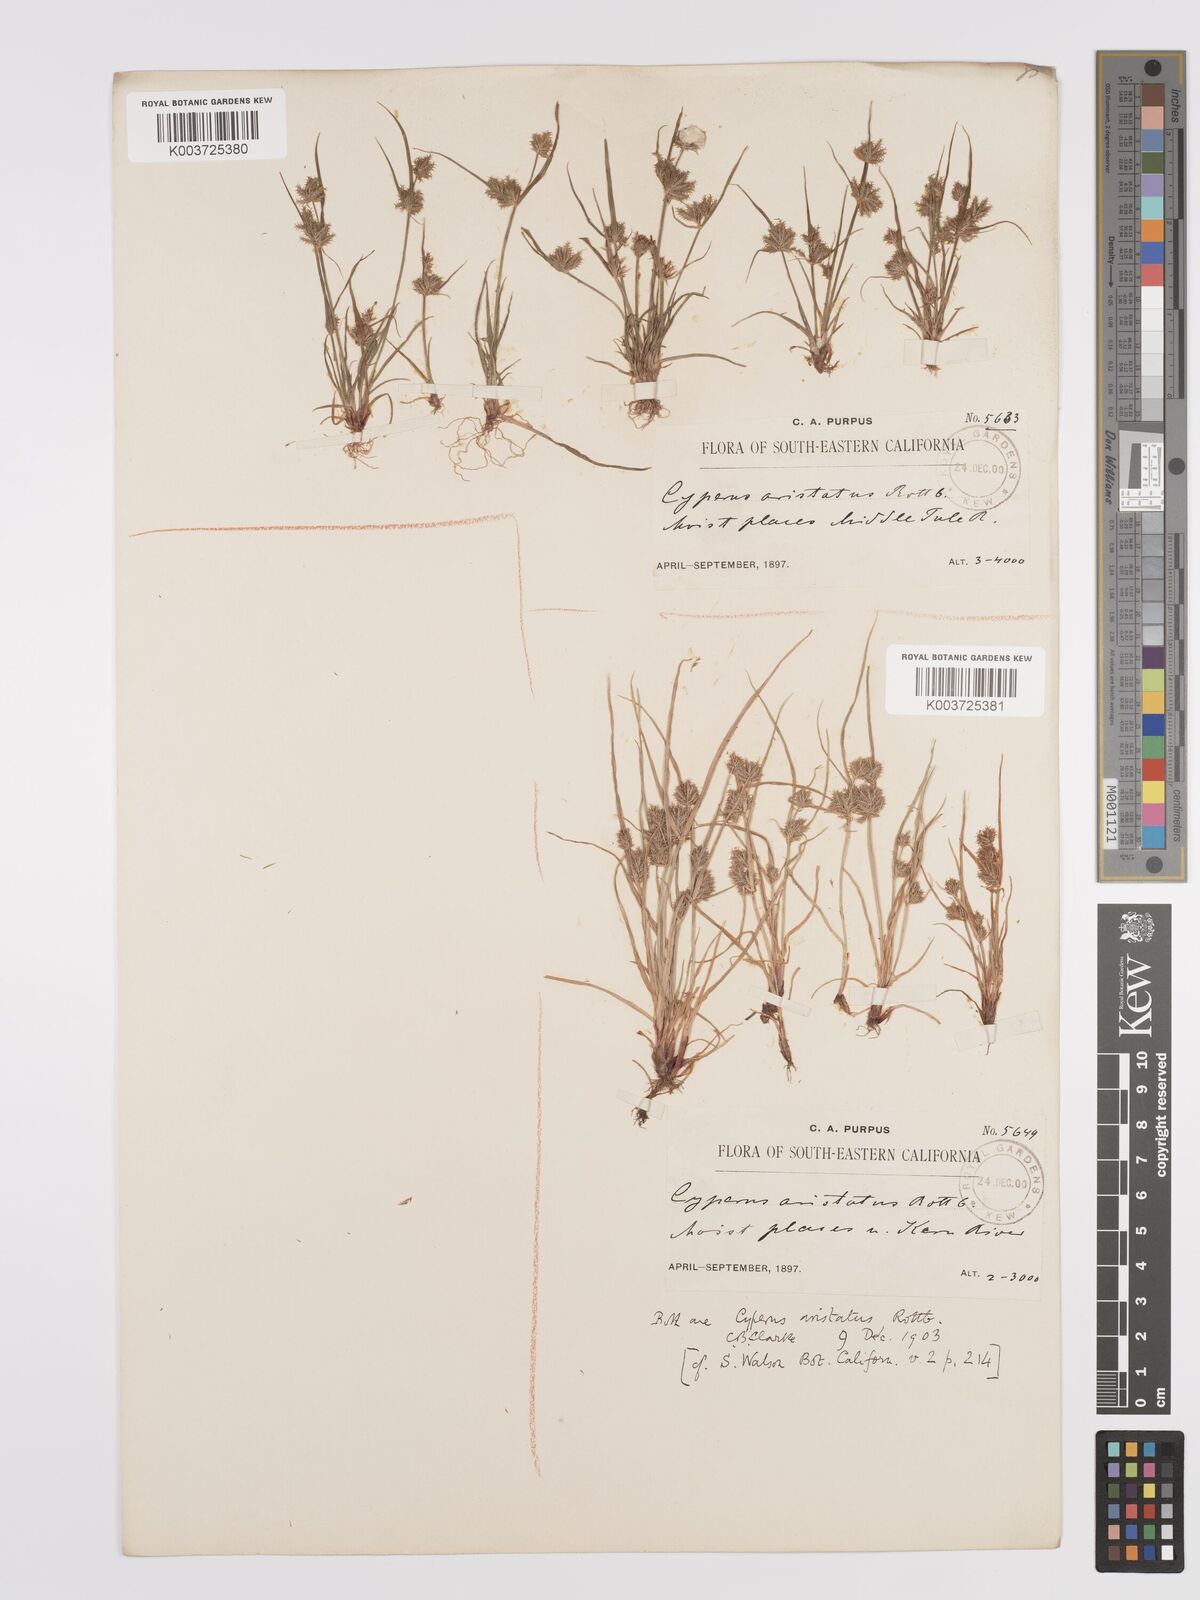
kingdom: Plantae
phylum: Tracheophyta
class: Liliopsida
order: Poales
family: Cyperaceae
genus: Cyperus
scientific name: Cyperus squarrosus
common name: Awned cyperus
